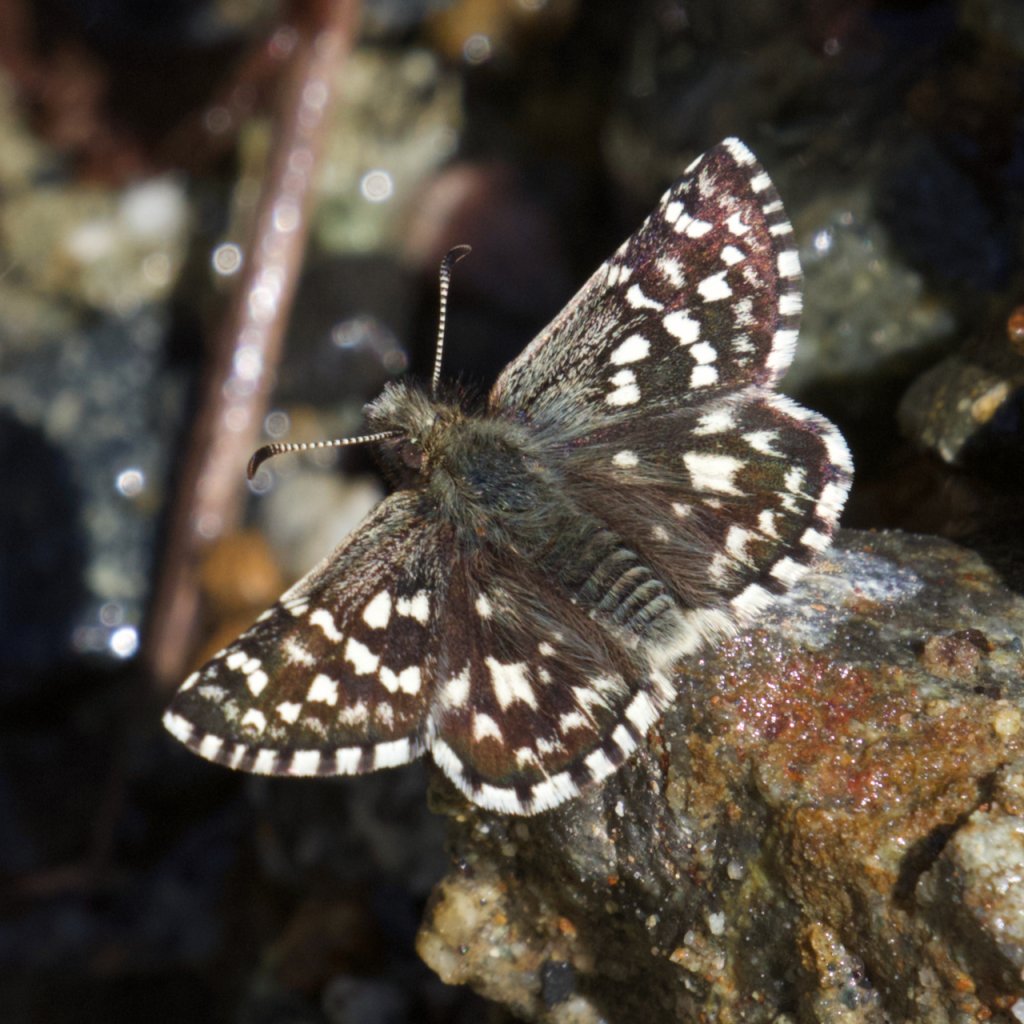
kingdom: Animalia
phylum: Arthropoda
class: Insecta
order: Lepidoptera
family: Hesperiidae
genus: Pyrgus
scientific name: Pyrgus ruralis
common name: Two-banded Checkered-Skipper
